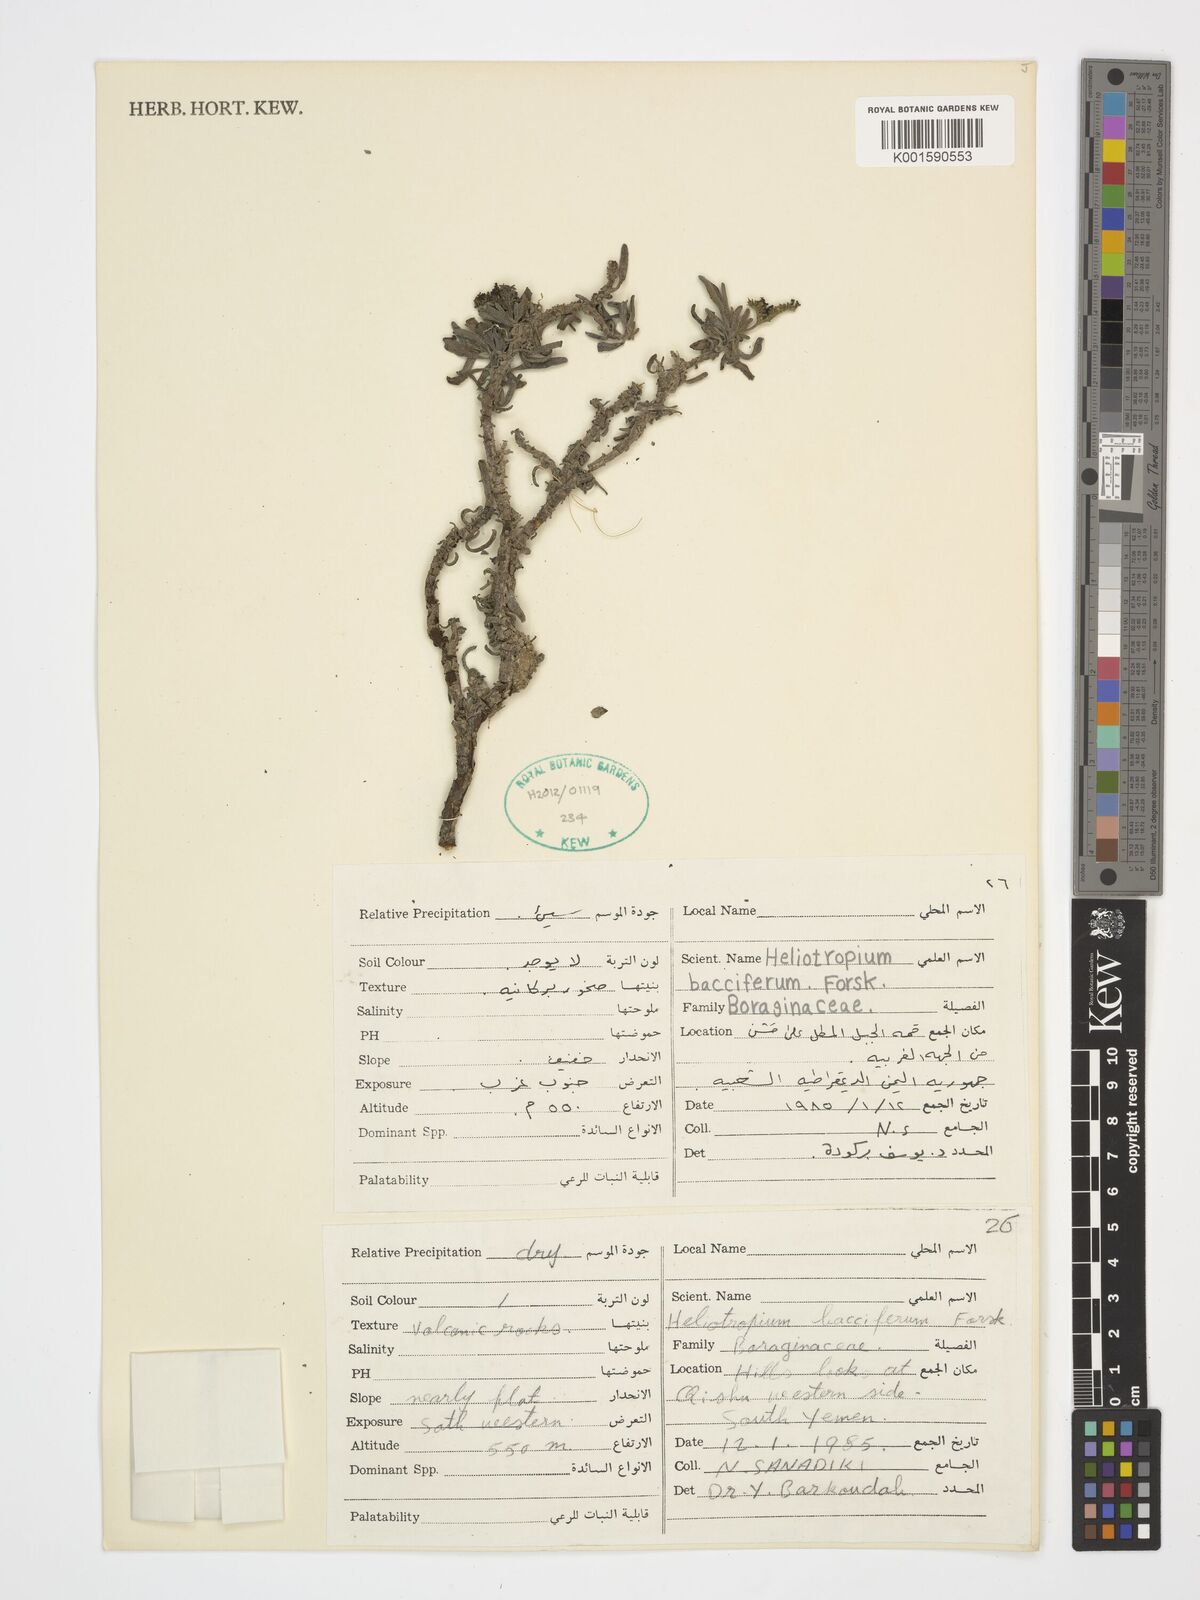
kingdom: Plantae
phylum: Tracheophyta
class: Magnoliopsida
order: Boraginales
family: Heliotropiaceae
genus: Heliotropium
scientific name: Heliotropium bacciferum
